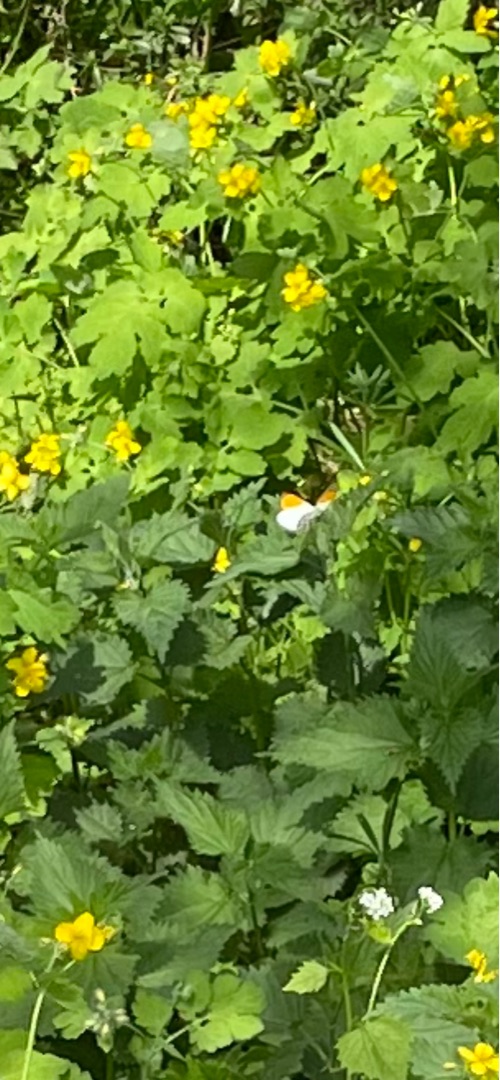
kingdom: Animalia
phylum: Arthropoda
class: Insecta
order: Lepidoptera
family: Pieridae
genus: Anthocharis
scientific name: Anthocharis cardamines
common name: Aurora
